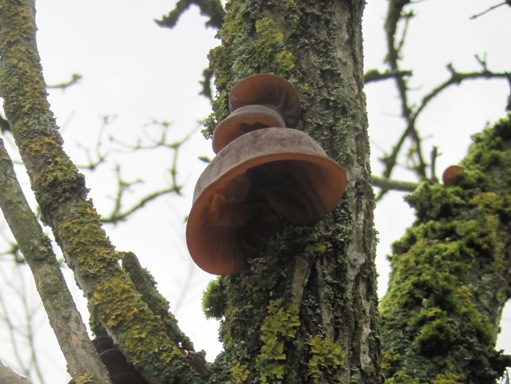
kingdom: Fungi
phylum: Basidiomycota
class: Agaricomycetes
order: Auriculariales
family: Auriculariaceae
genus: Auricularia
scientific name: Auricularia auricula-judae
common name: almindelig judasøre
